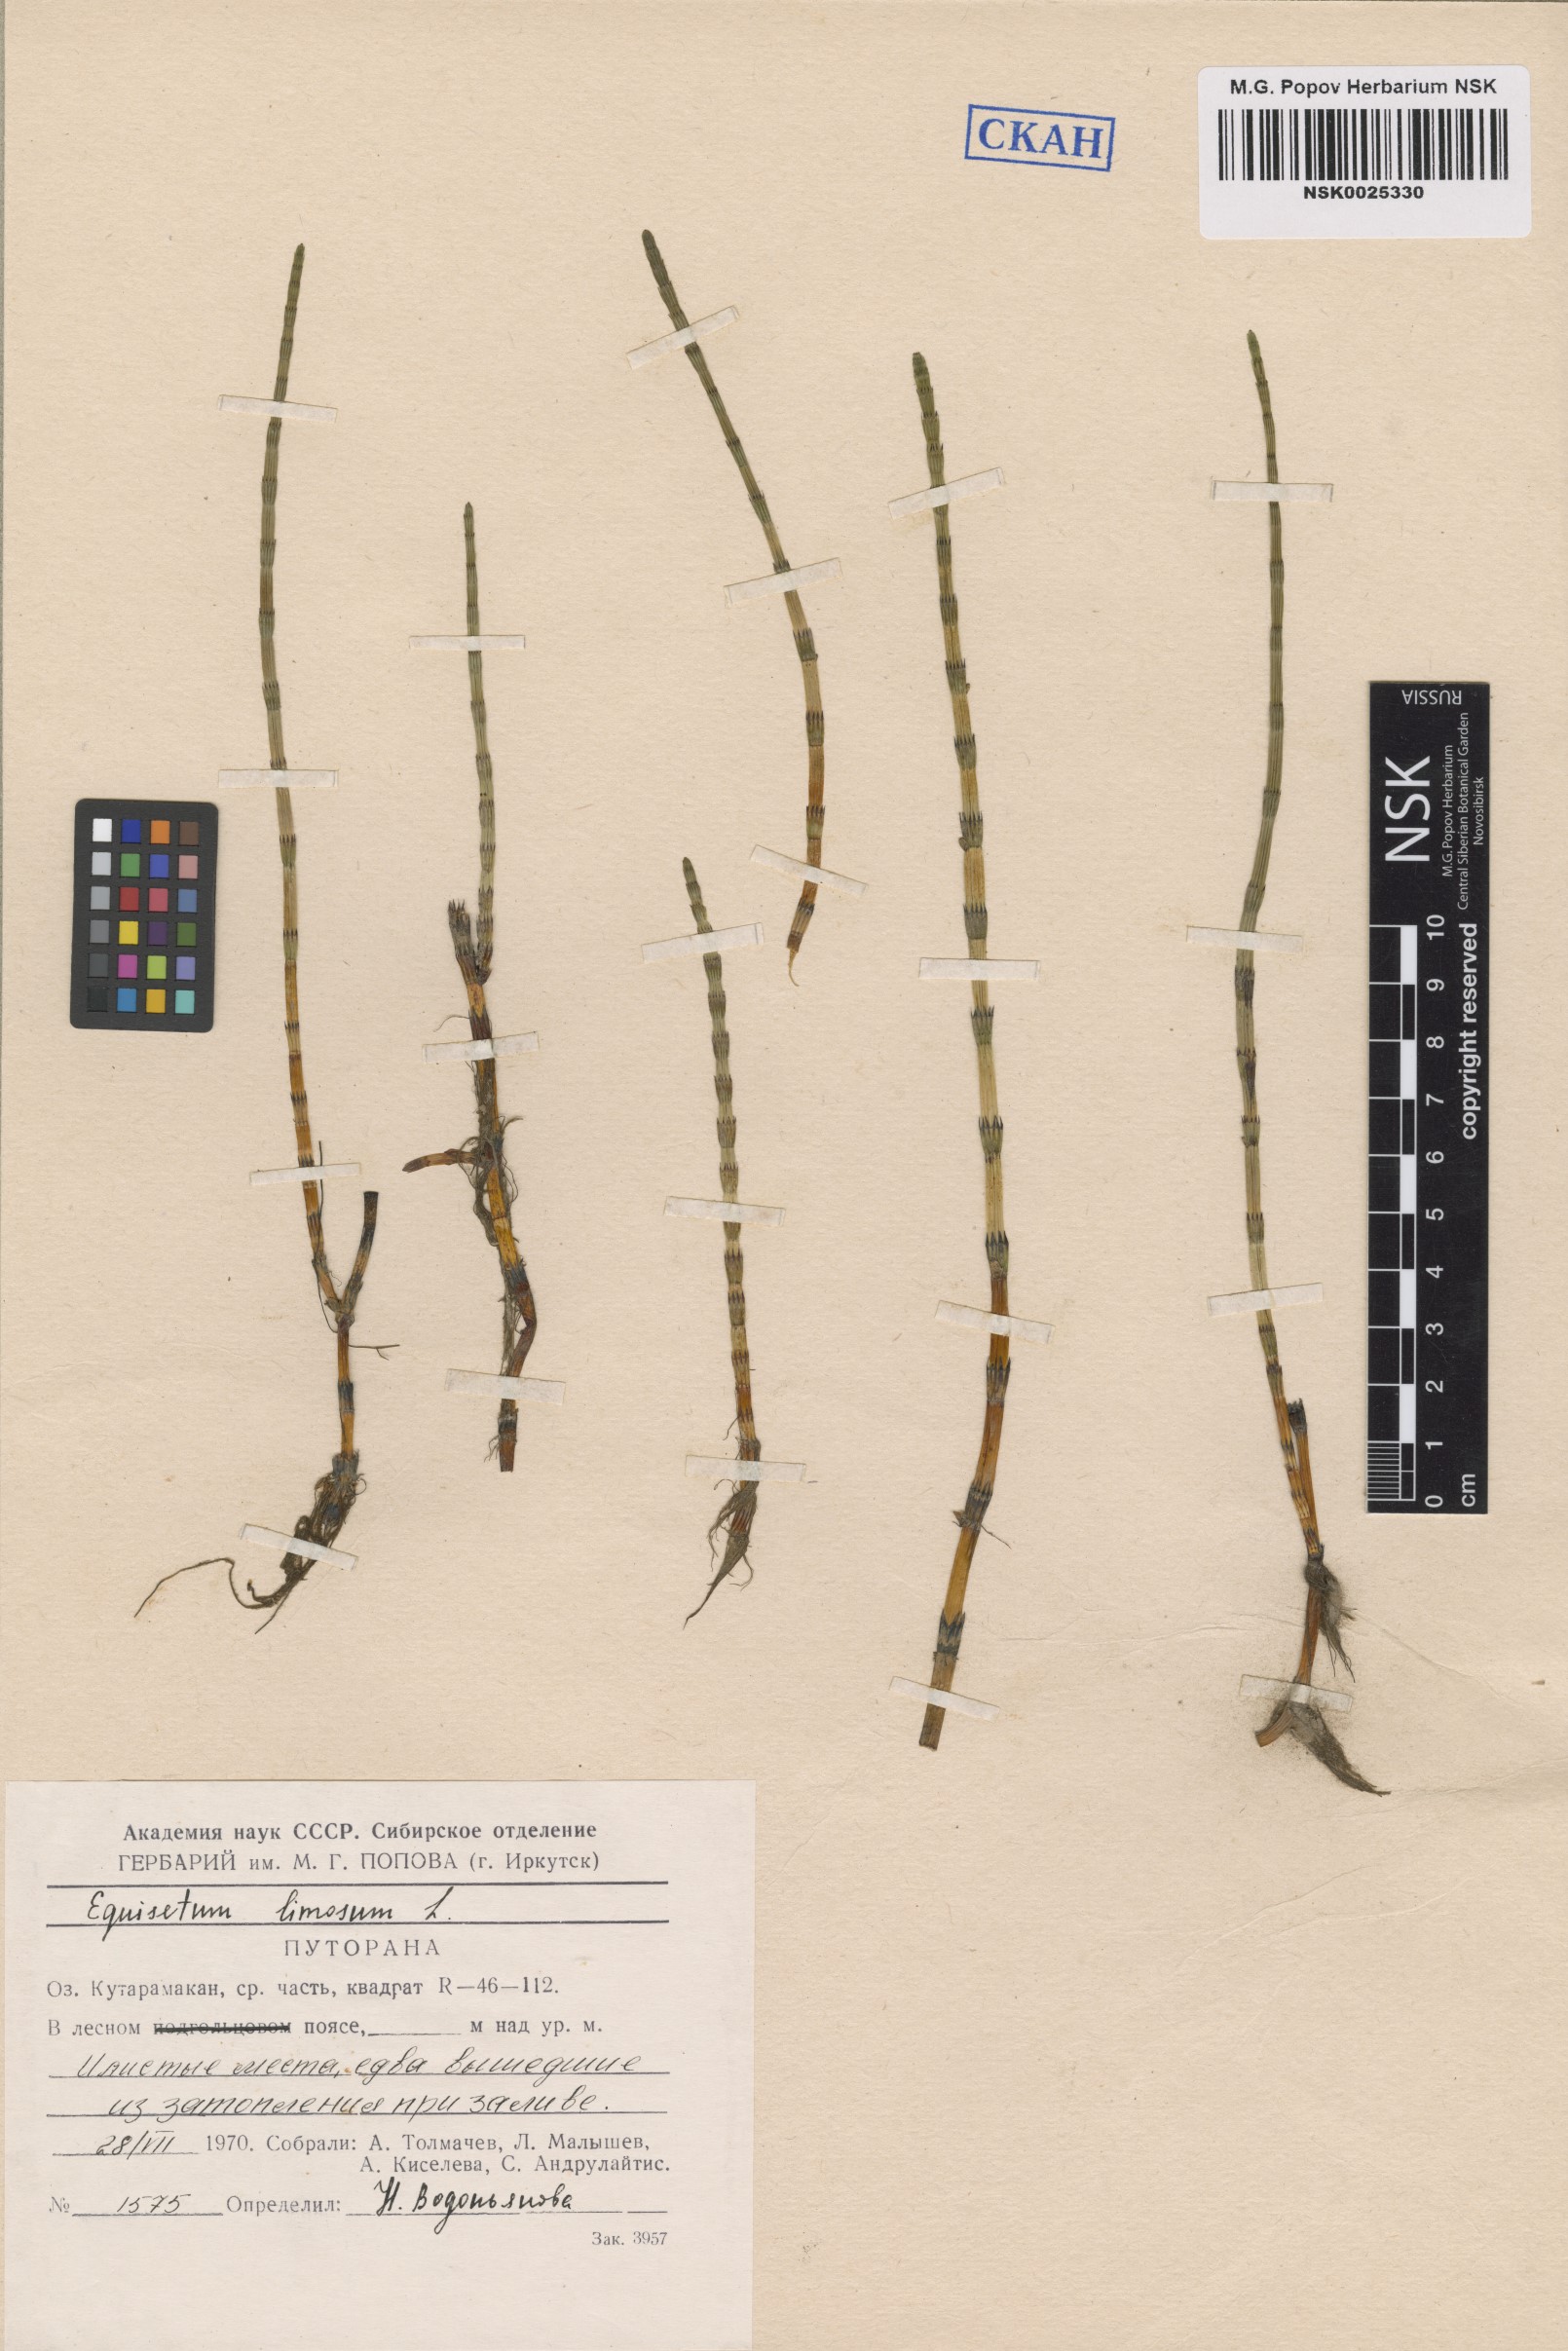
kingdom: Plantae
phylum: Tracheophyta
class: Polypodiopsida
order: Equisetales
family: Equisetaceae
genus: Equisetum
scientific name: Equisetum fluviatile
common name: Water horsetail
